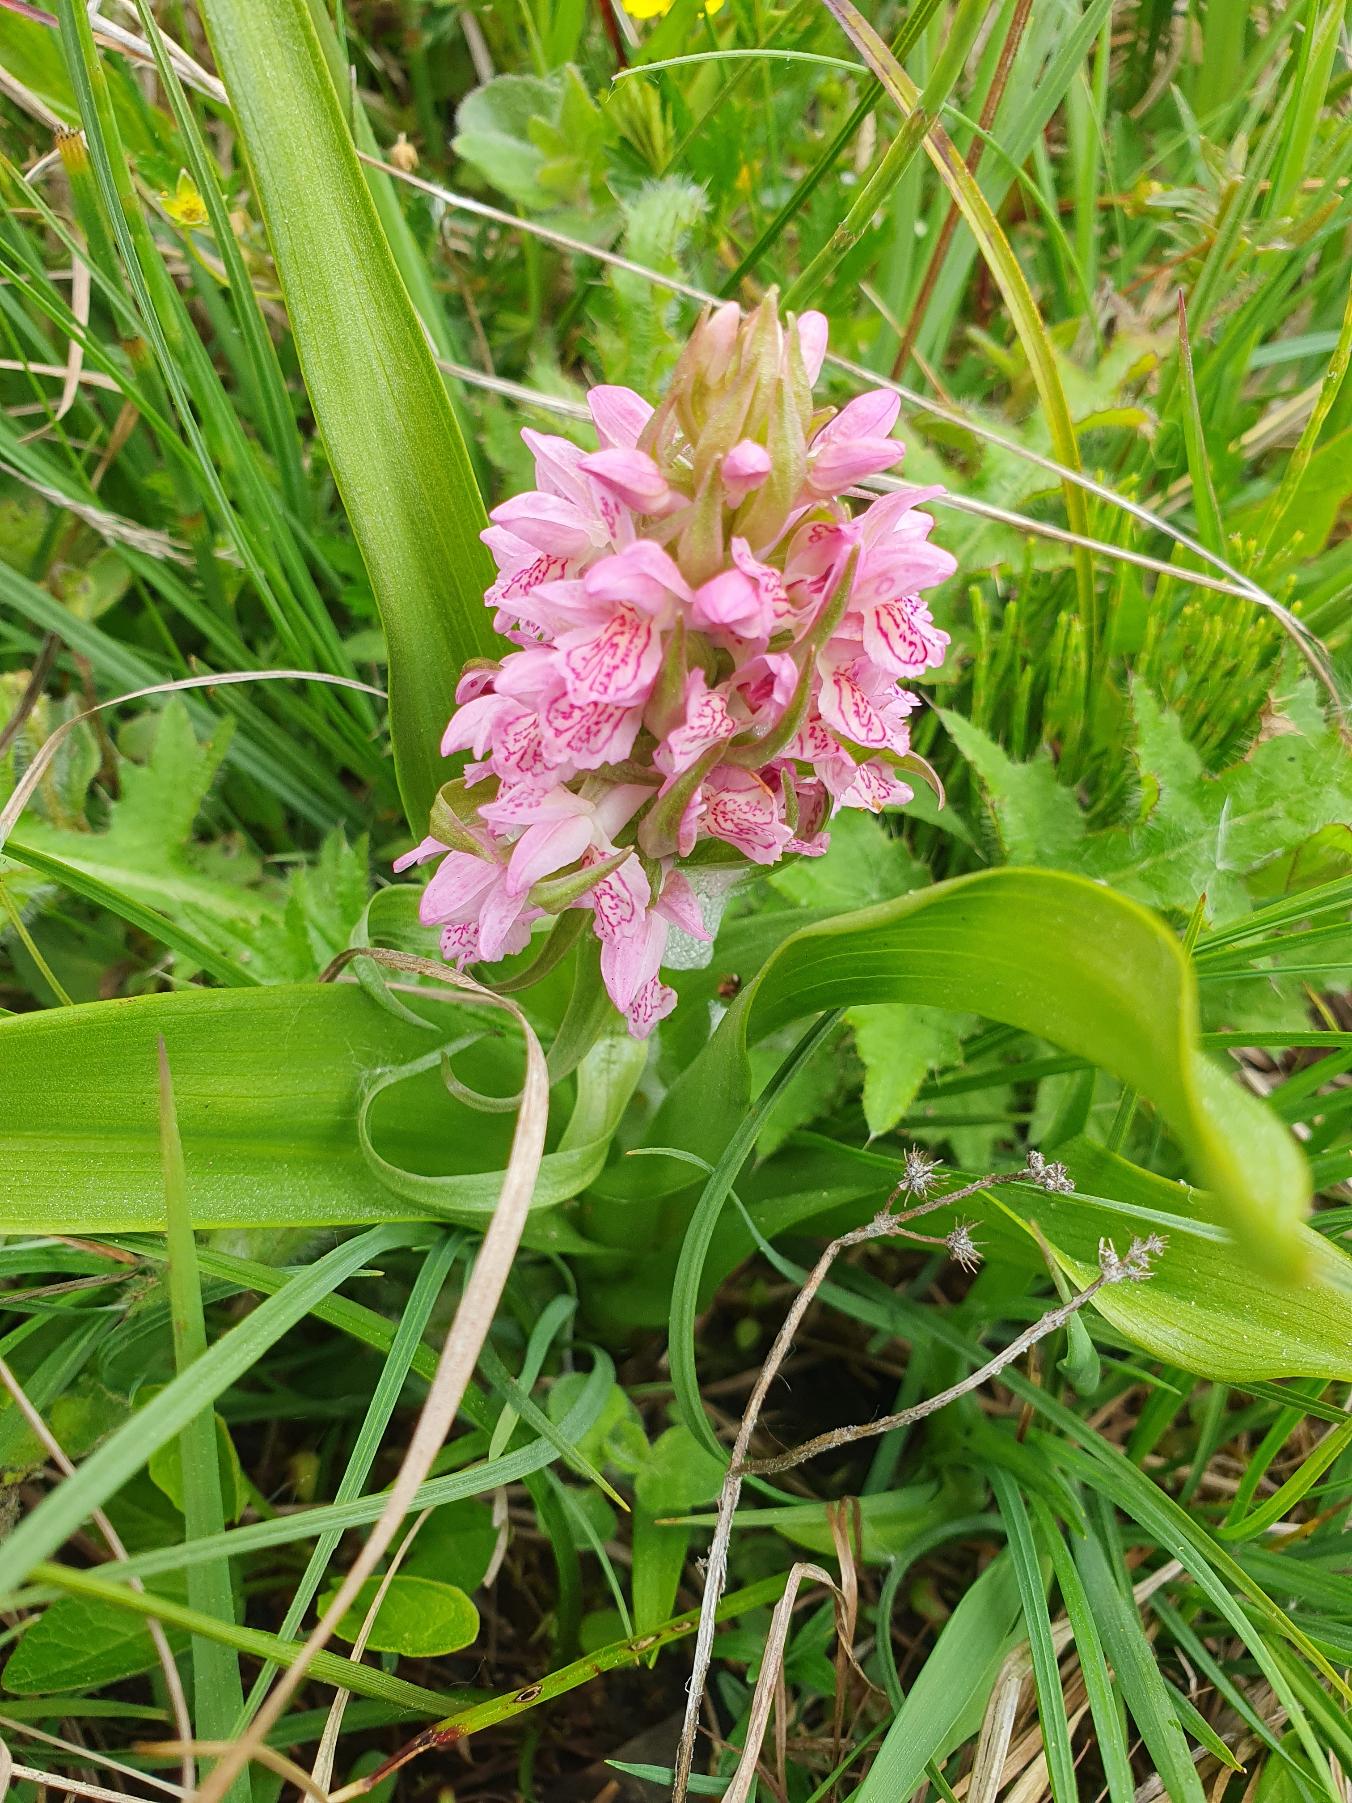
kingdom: Plantae
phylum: Tracheophyta
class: Liliopsida
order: Asparagales
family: Orchidaceae
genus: Dactylorhiza
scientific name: Dactylorhiza incarnata
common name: Kødfarvet gøgeurt
